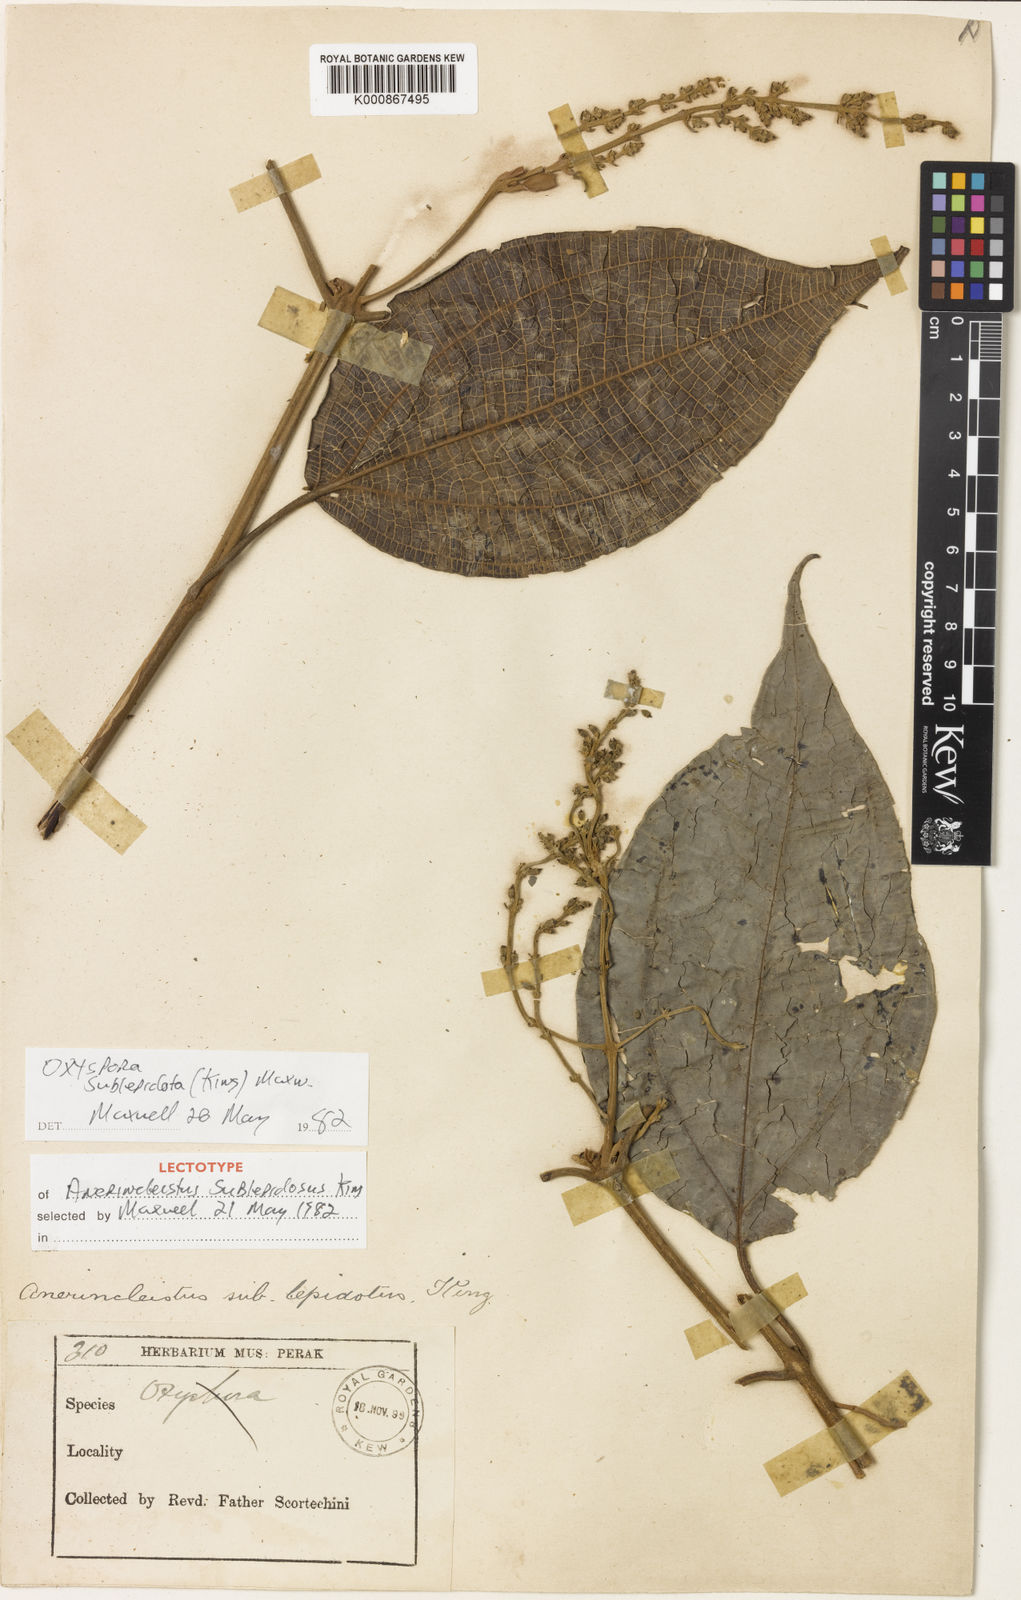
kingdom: Plantae
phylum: Tracheophyta
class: Magnoliopsida
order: Myrtales
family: Melastomataceae
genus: Allomorphia
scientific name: Allomorphia rosea
